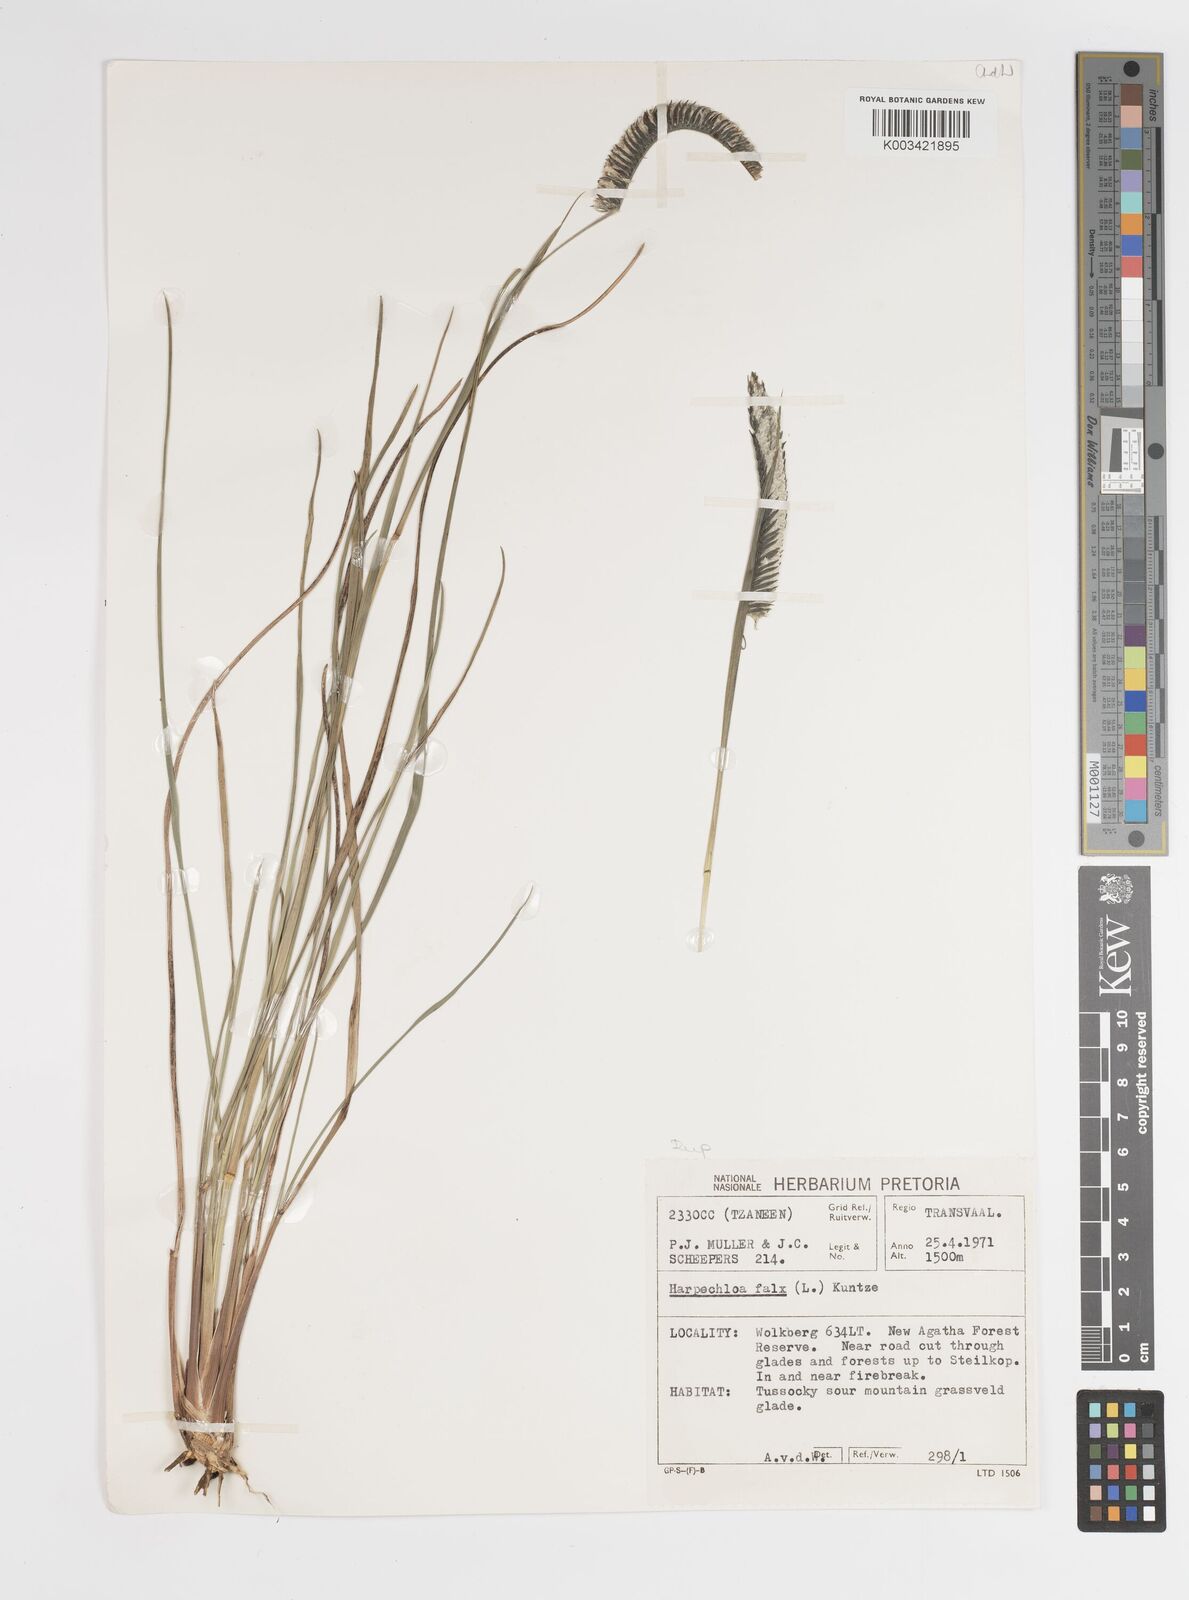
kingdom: Plantae
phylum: Tracheophyta
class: Liliopsida
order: Poales
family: Poaceae
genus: Harpochloa
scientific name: Harpochloa falx
